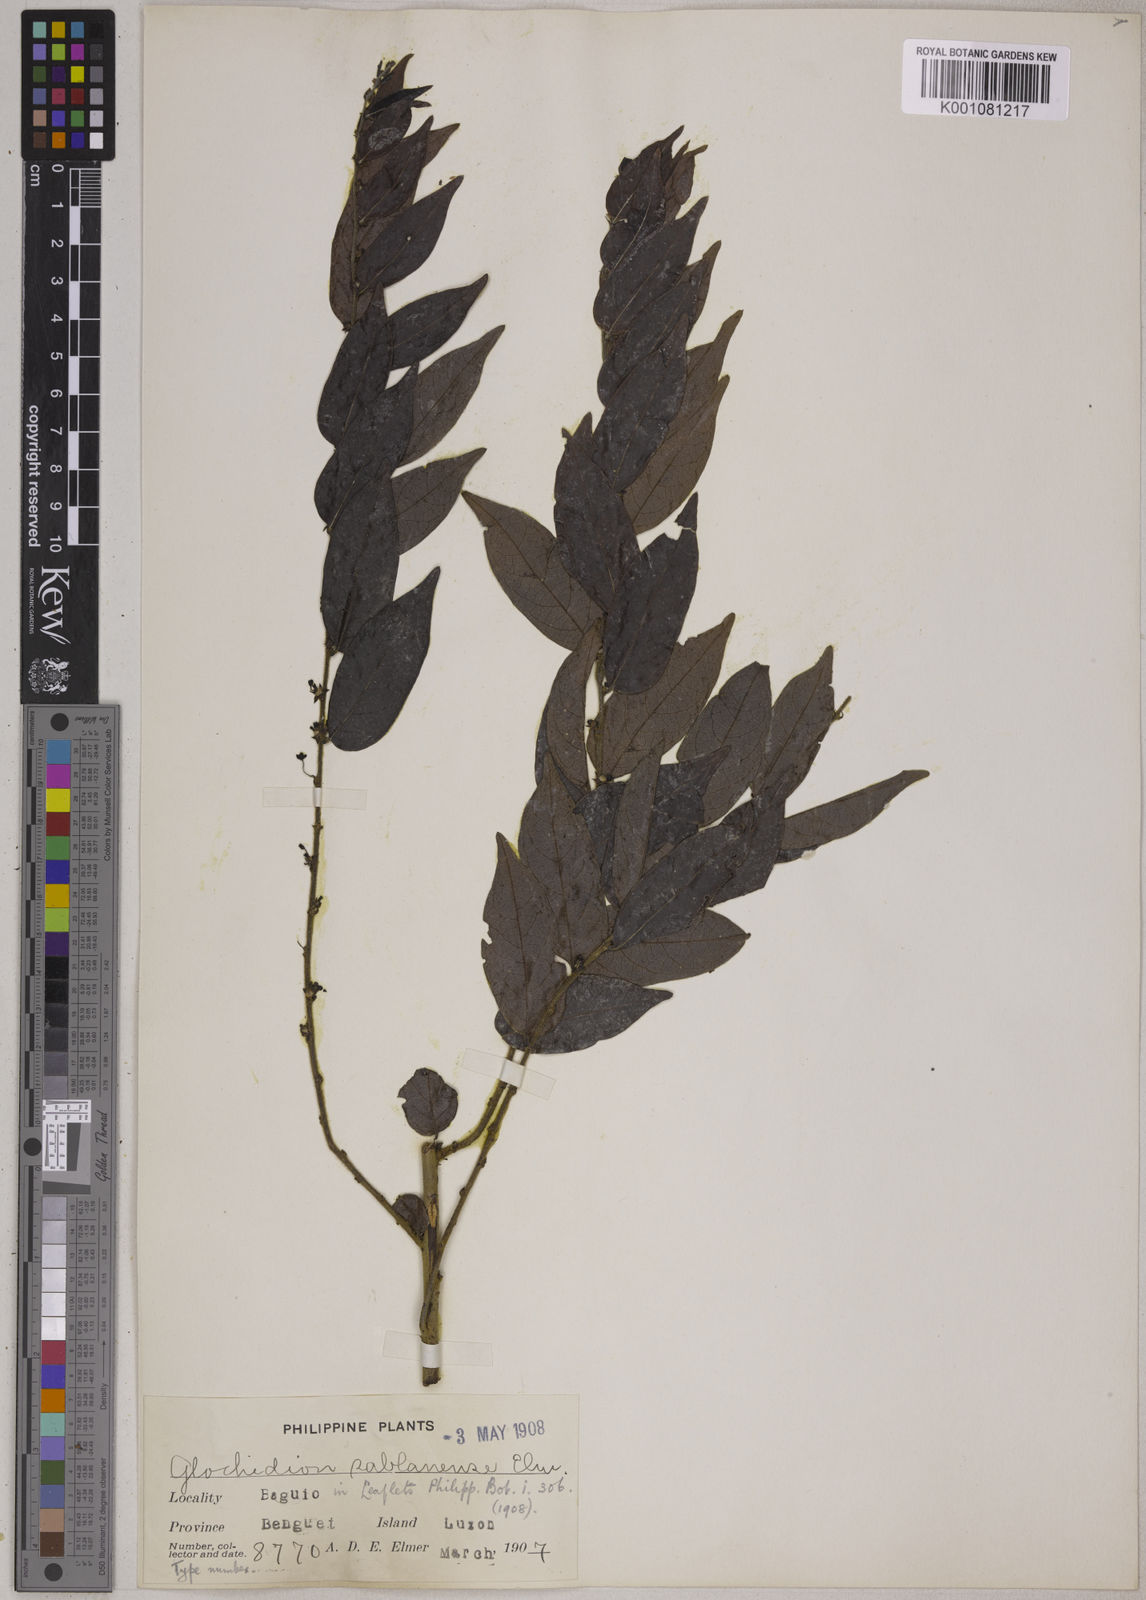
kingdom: Plantae
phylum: Tracheophyta
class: Magnoliopsida
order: Malpighiales
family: Phyllanthaceae
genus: Glochidion
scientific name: Glochidion benguetense
